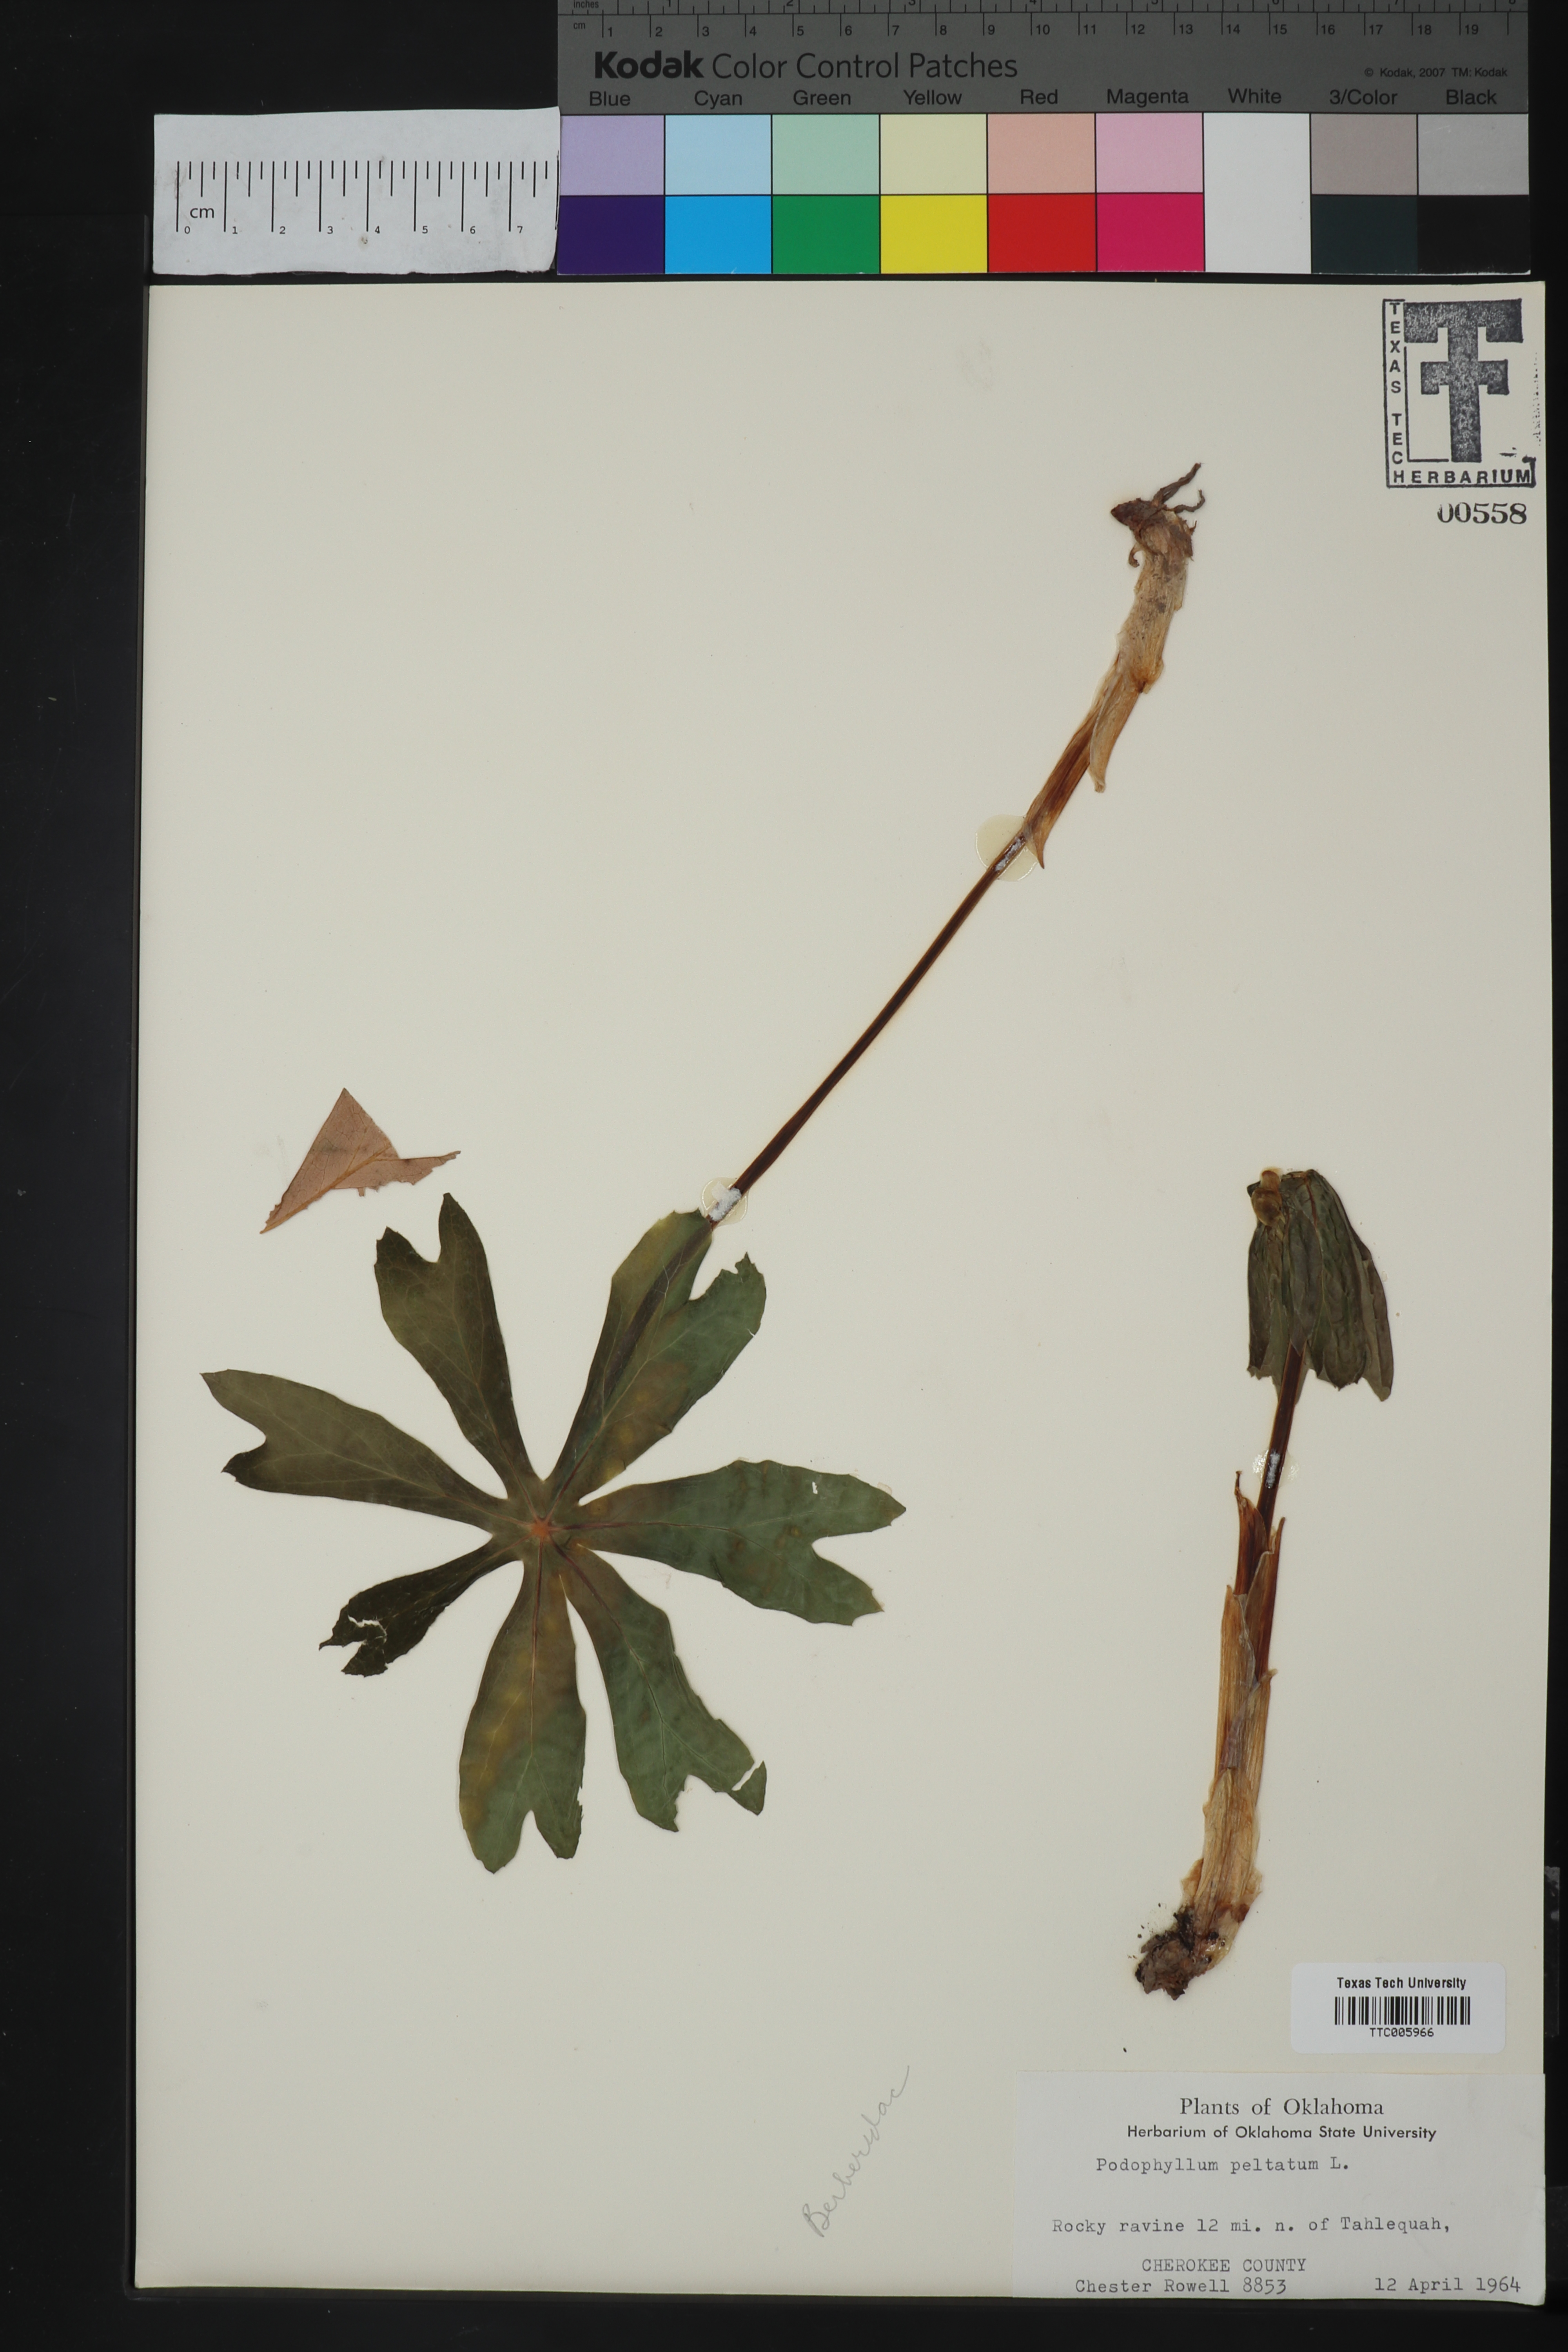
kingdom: Plantae
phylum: Tracheophyta
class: Magnoliopsida
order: Ranunculales
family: Berberidaceae
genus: Podophyllum
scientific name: Podophyllum peltatum
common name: Wild mandrake
